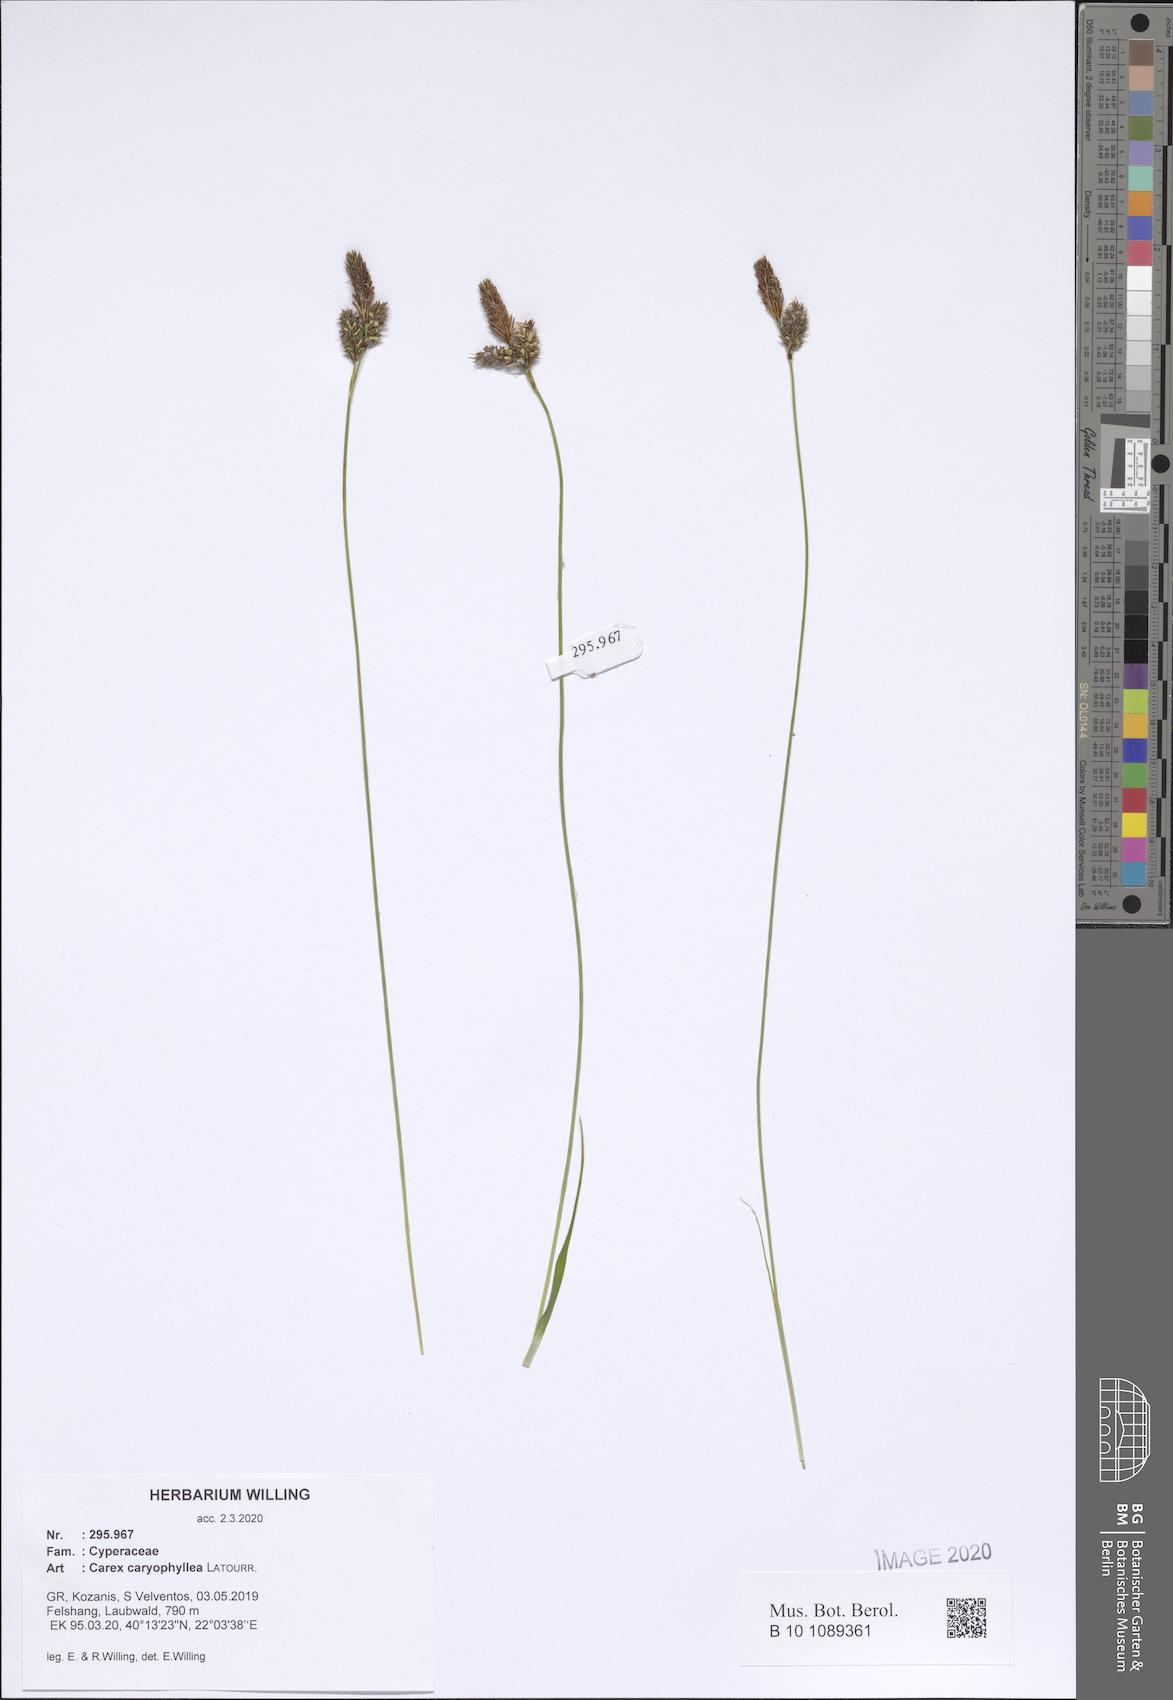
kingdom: Plantae
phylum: Tracheophyta
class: Liliopsida
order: Poales
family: Cyperaceae
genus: Carex
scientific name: Carex caryophyllea
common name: Spring sedge
